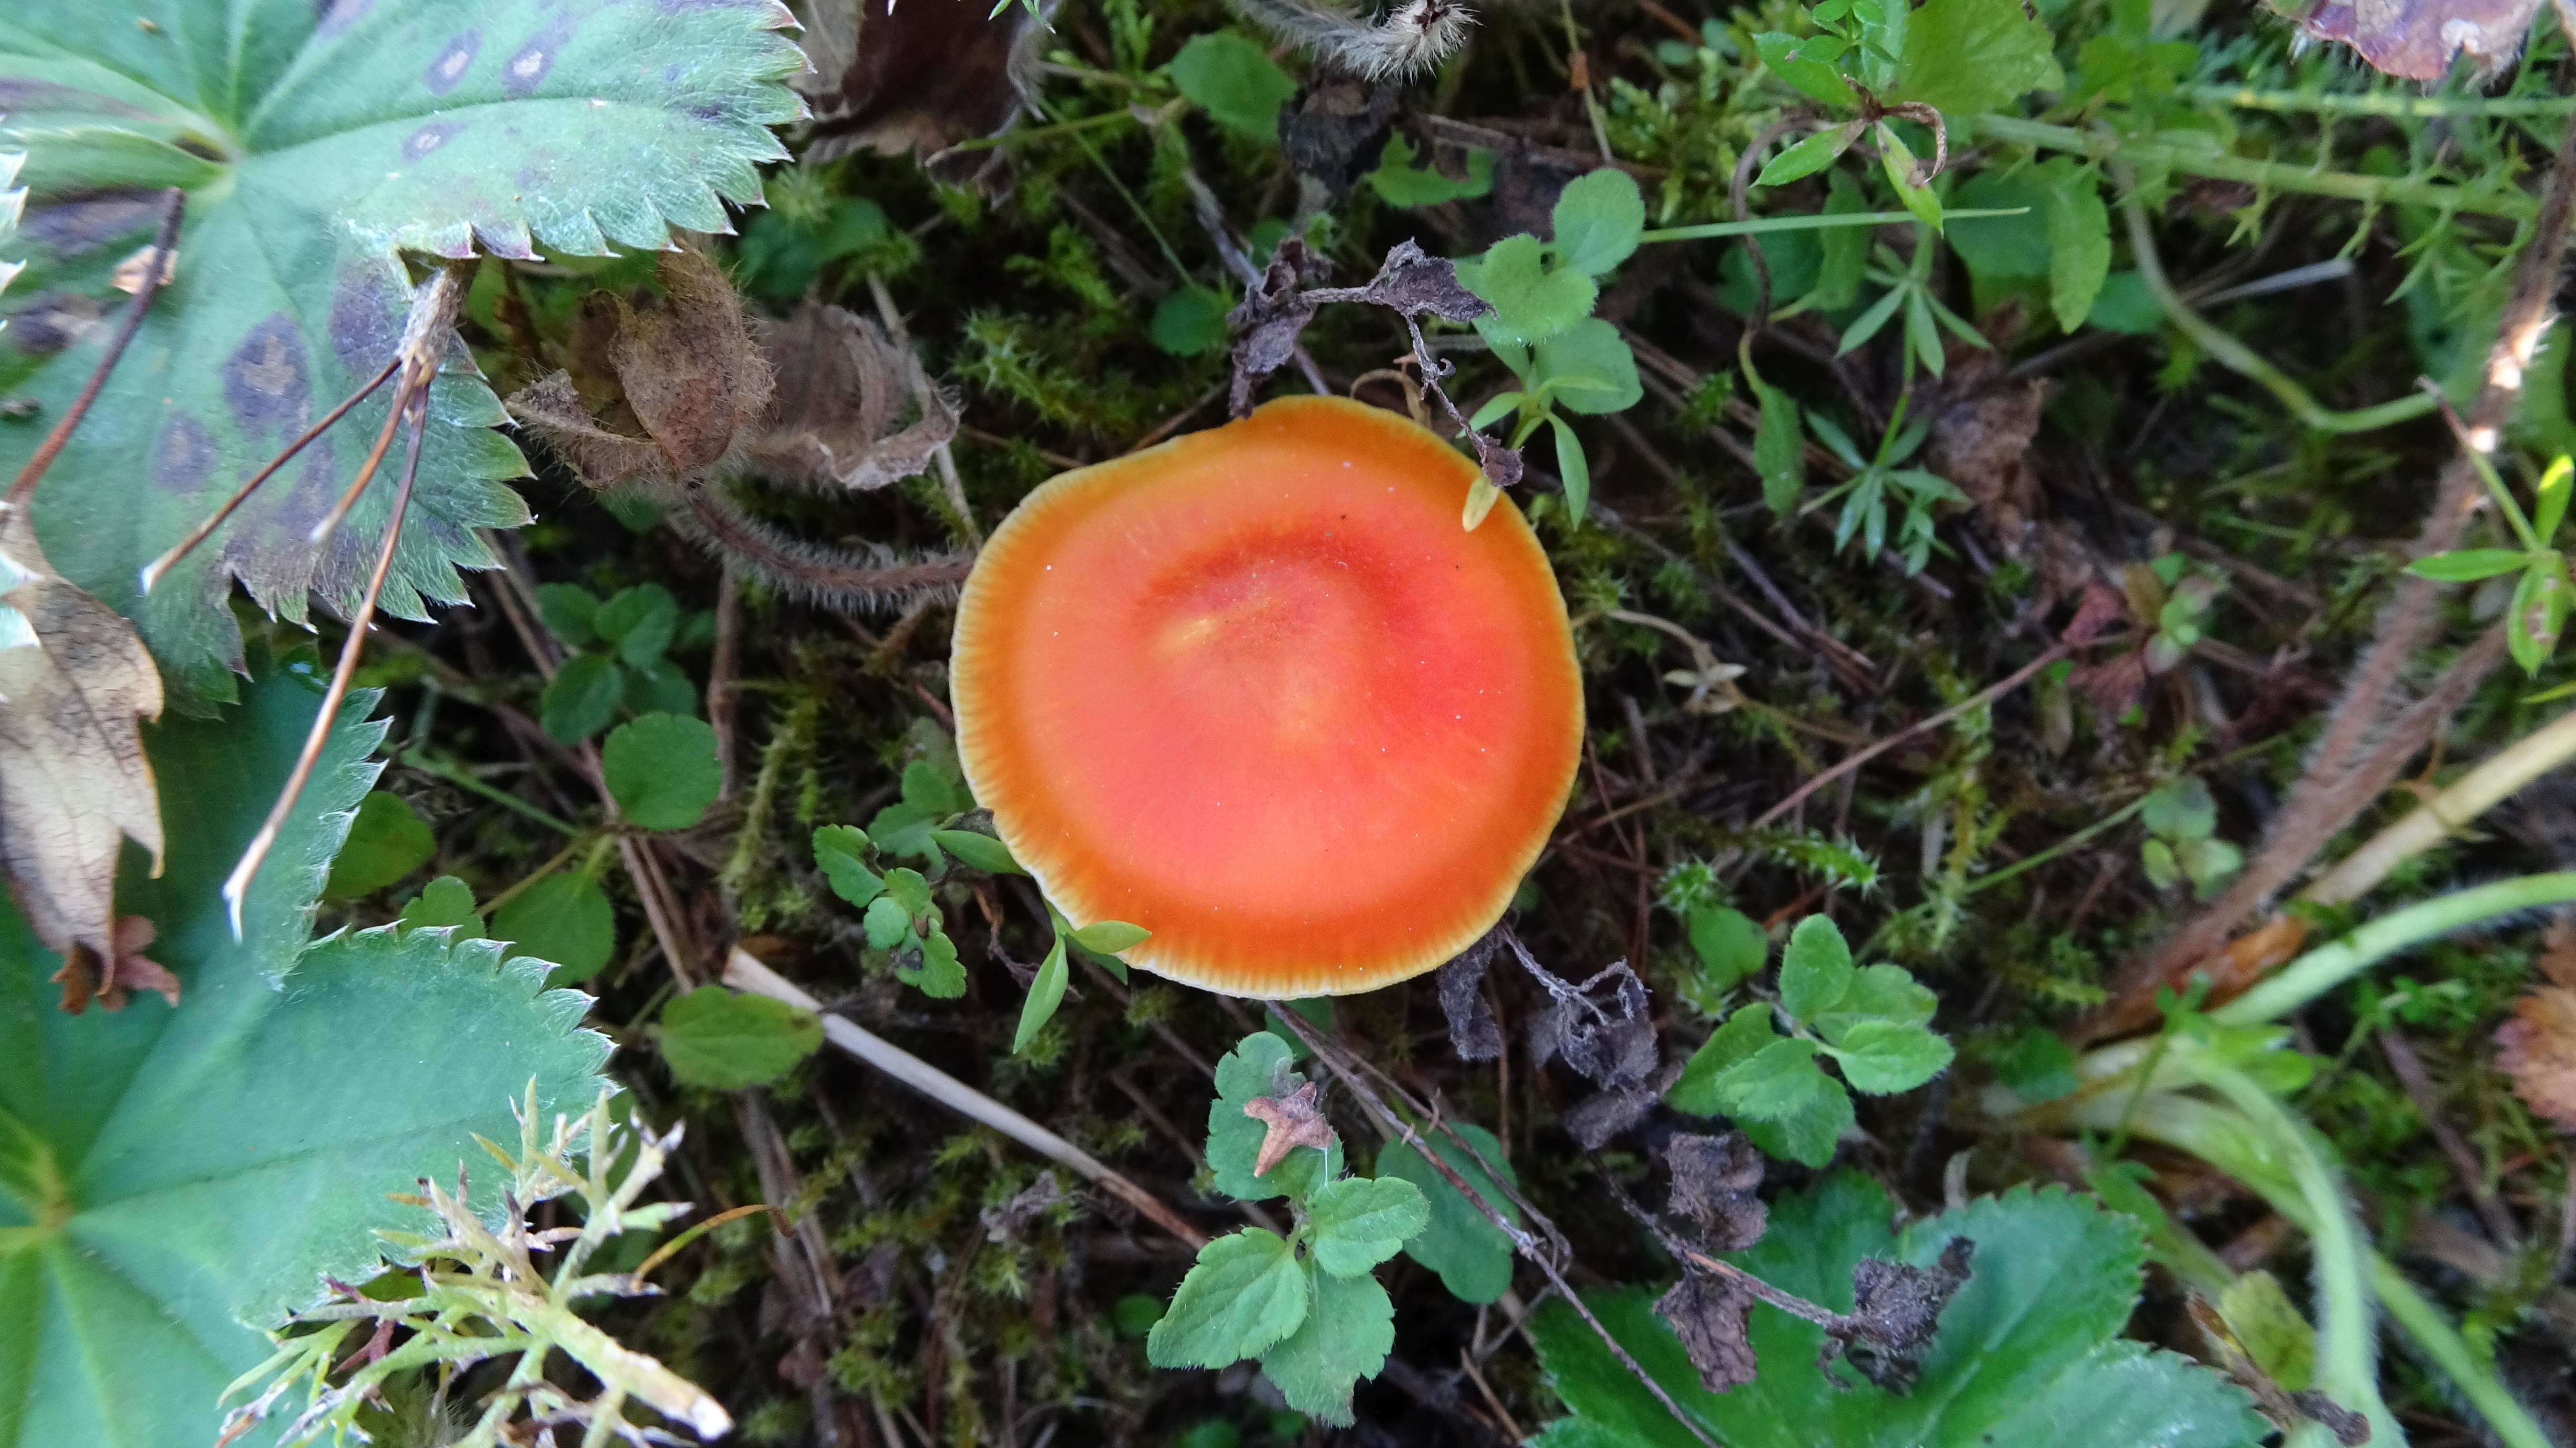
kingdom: Fungi
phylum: Basidiomycota
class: Agaricomycetes
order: Agaricales
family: Hygrophoraceae
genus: Hygrocybe
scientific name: Hygrocybe
